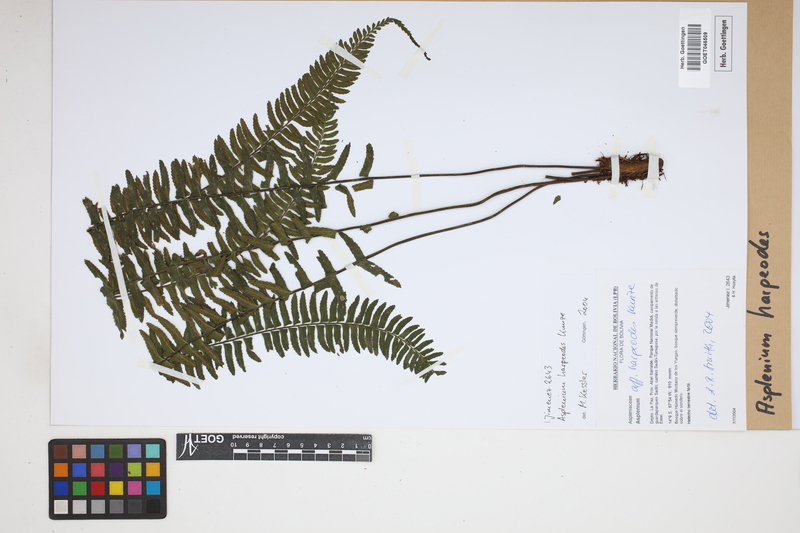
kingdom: Plantae
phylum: Tracheophyta
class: Polypodiopsida
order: Polypodiales
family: Aspleniaceae
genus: Asplenium
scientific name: Asplenium harpeodes
